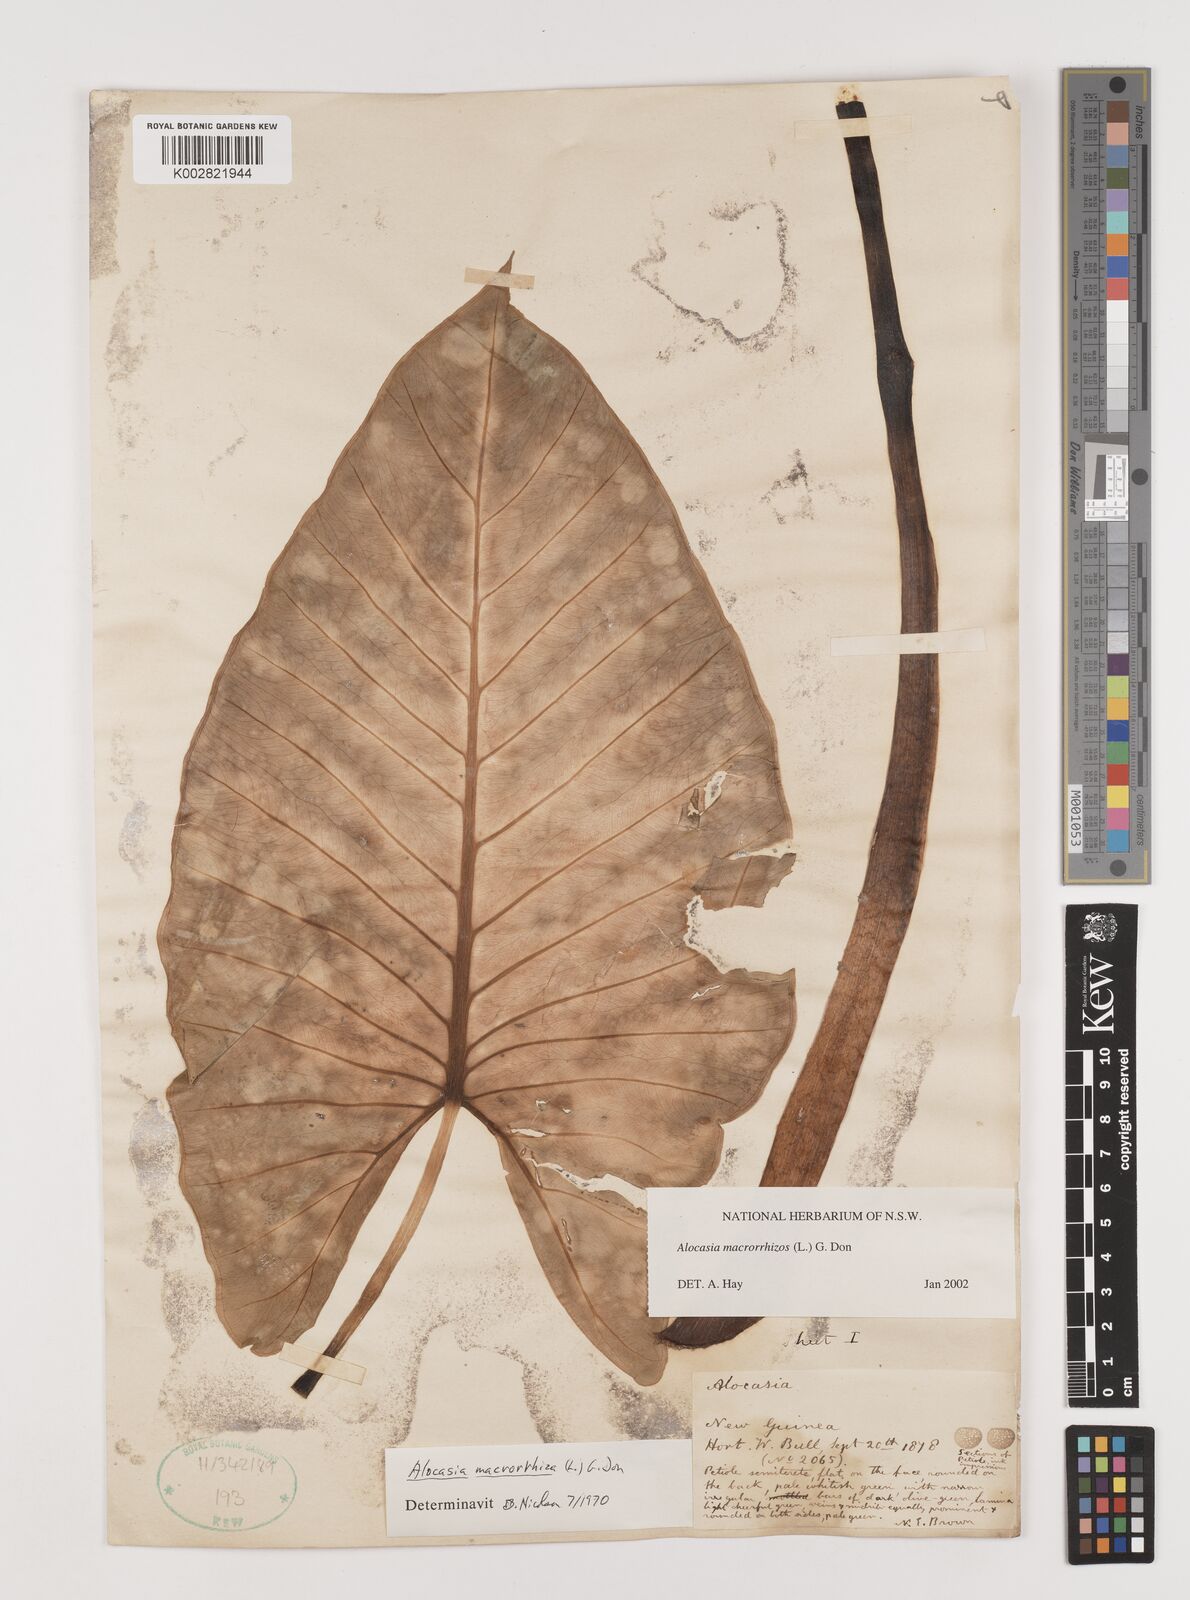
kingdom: Plantae
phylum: Tracheophyta
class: Liliopsida
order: Alismatales
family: Araceae
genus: Alocasia
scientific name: Alocasia macrorrhizos
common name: Giant taro
